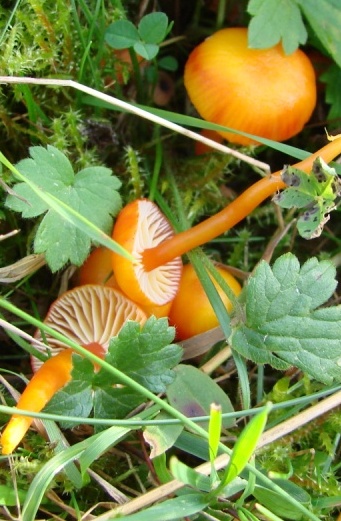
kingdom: Fungi
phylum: Basidiomycota
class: Agaricomycetes
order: Agaricales
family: Hygrophoraceae
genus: Hygrocybe
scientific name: Hygrocybe insipida
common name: liden vokshat
